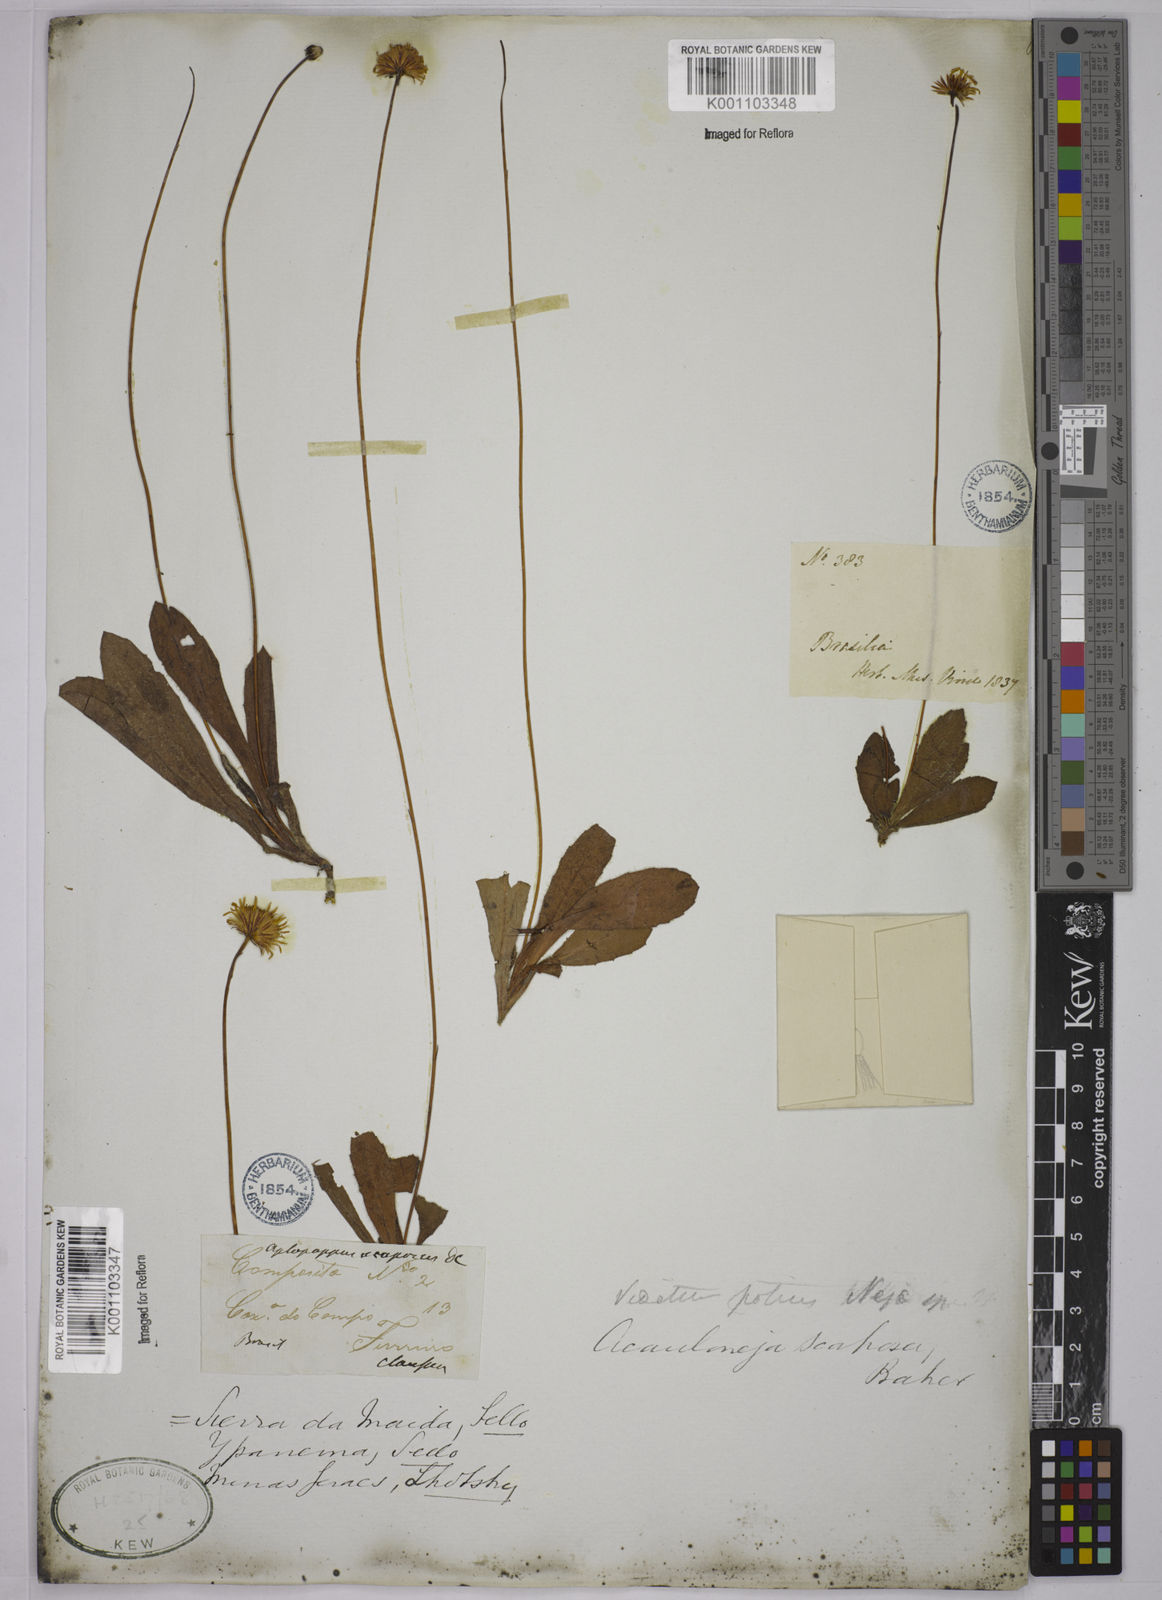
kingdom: Plantae
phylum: Tracheophyta
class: Magnoliopsida
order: Asterales
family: Asteraceae
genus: Inulopsis
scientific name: Inulopsis scaposa
